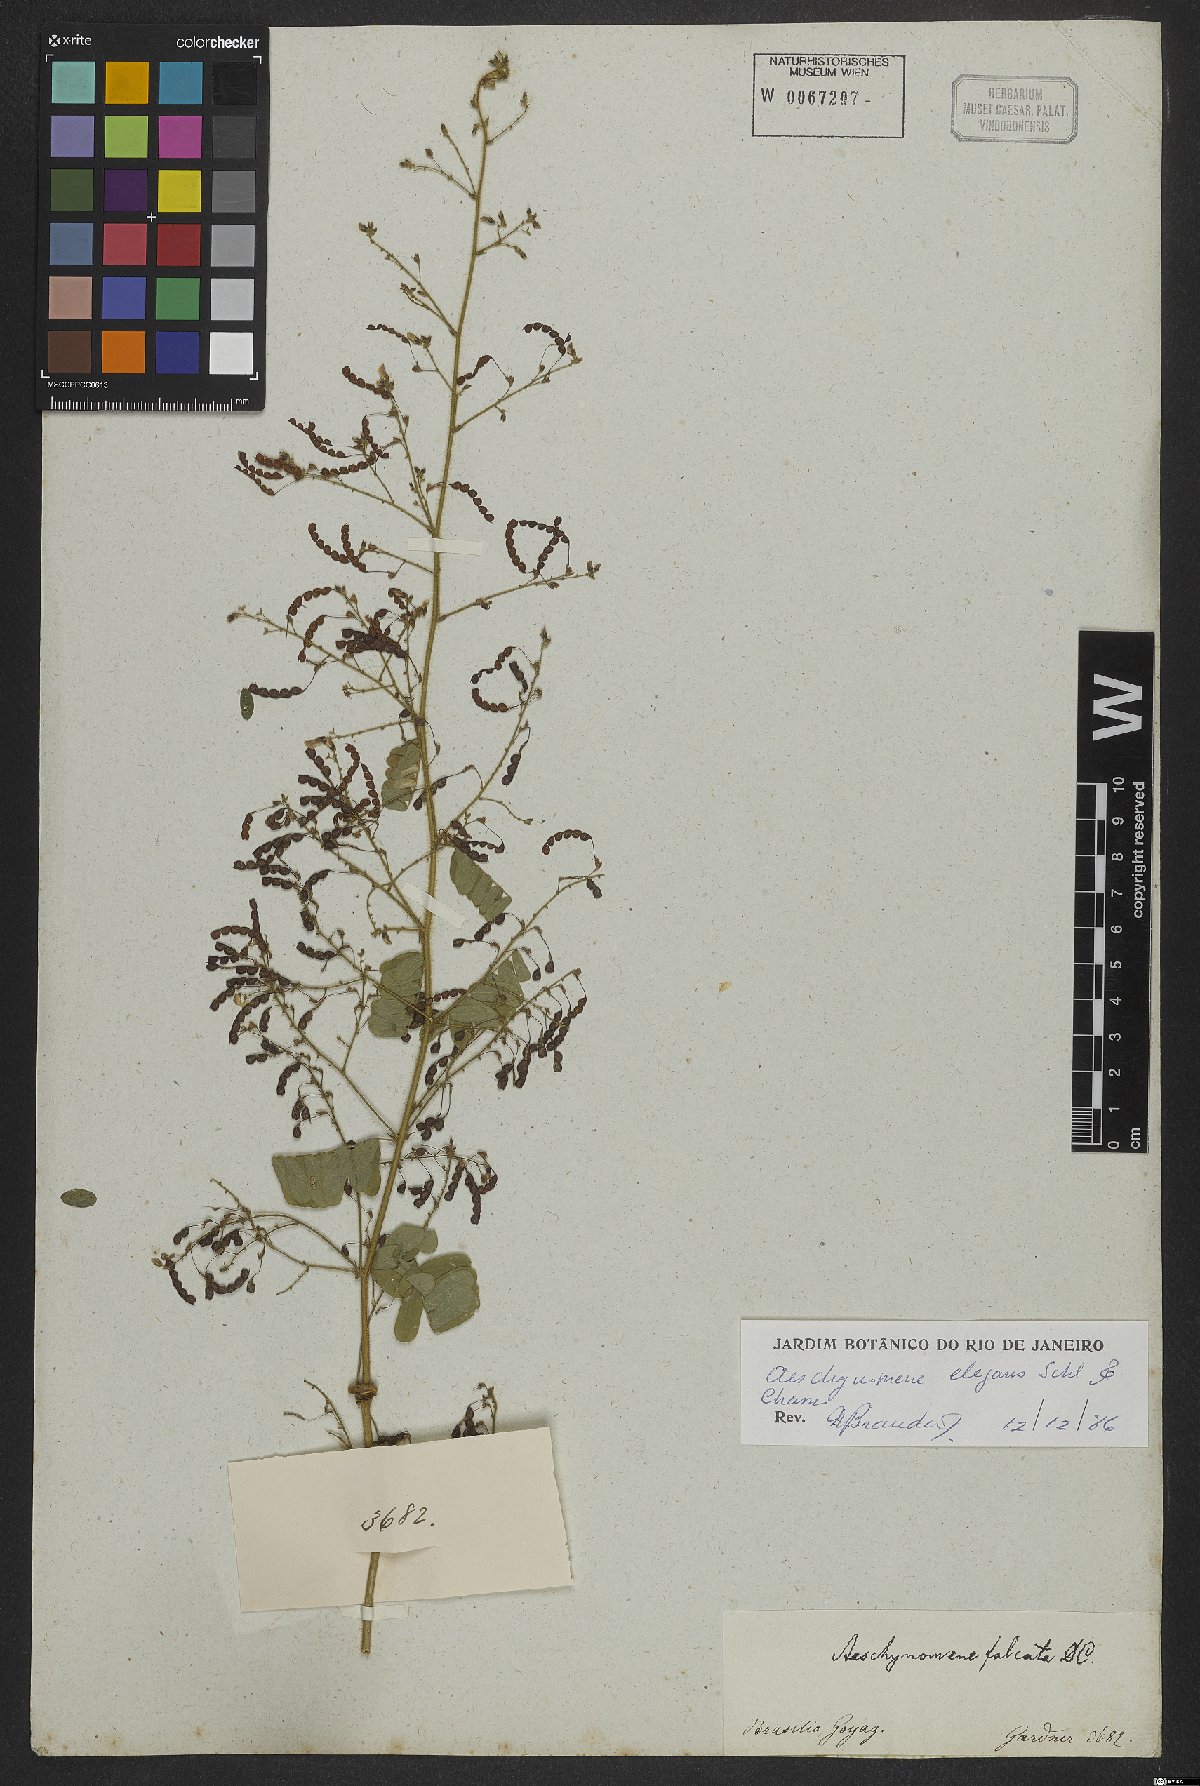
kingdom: Plantae
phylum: Tracheophyta
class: Magnoliopsida
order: Fabales
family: Fabaceae
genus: Ctenodon
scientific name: Ctenodon elegans
